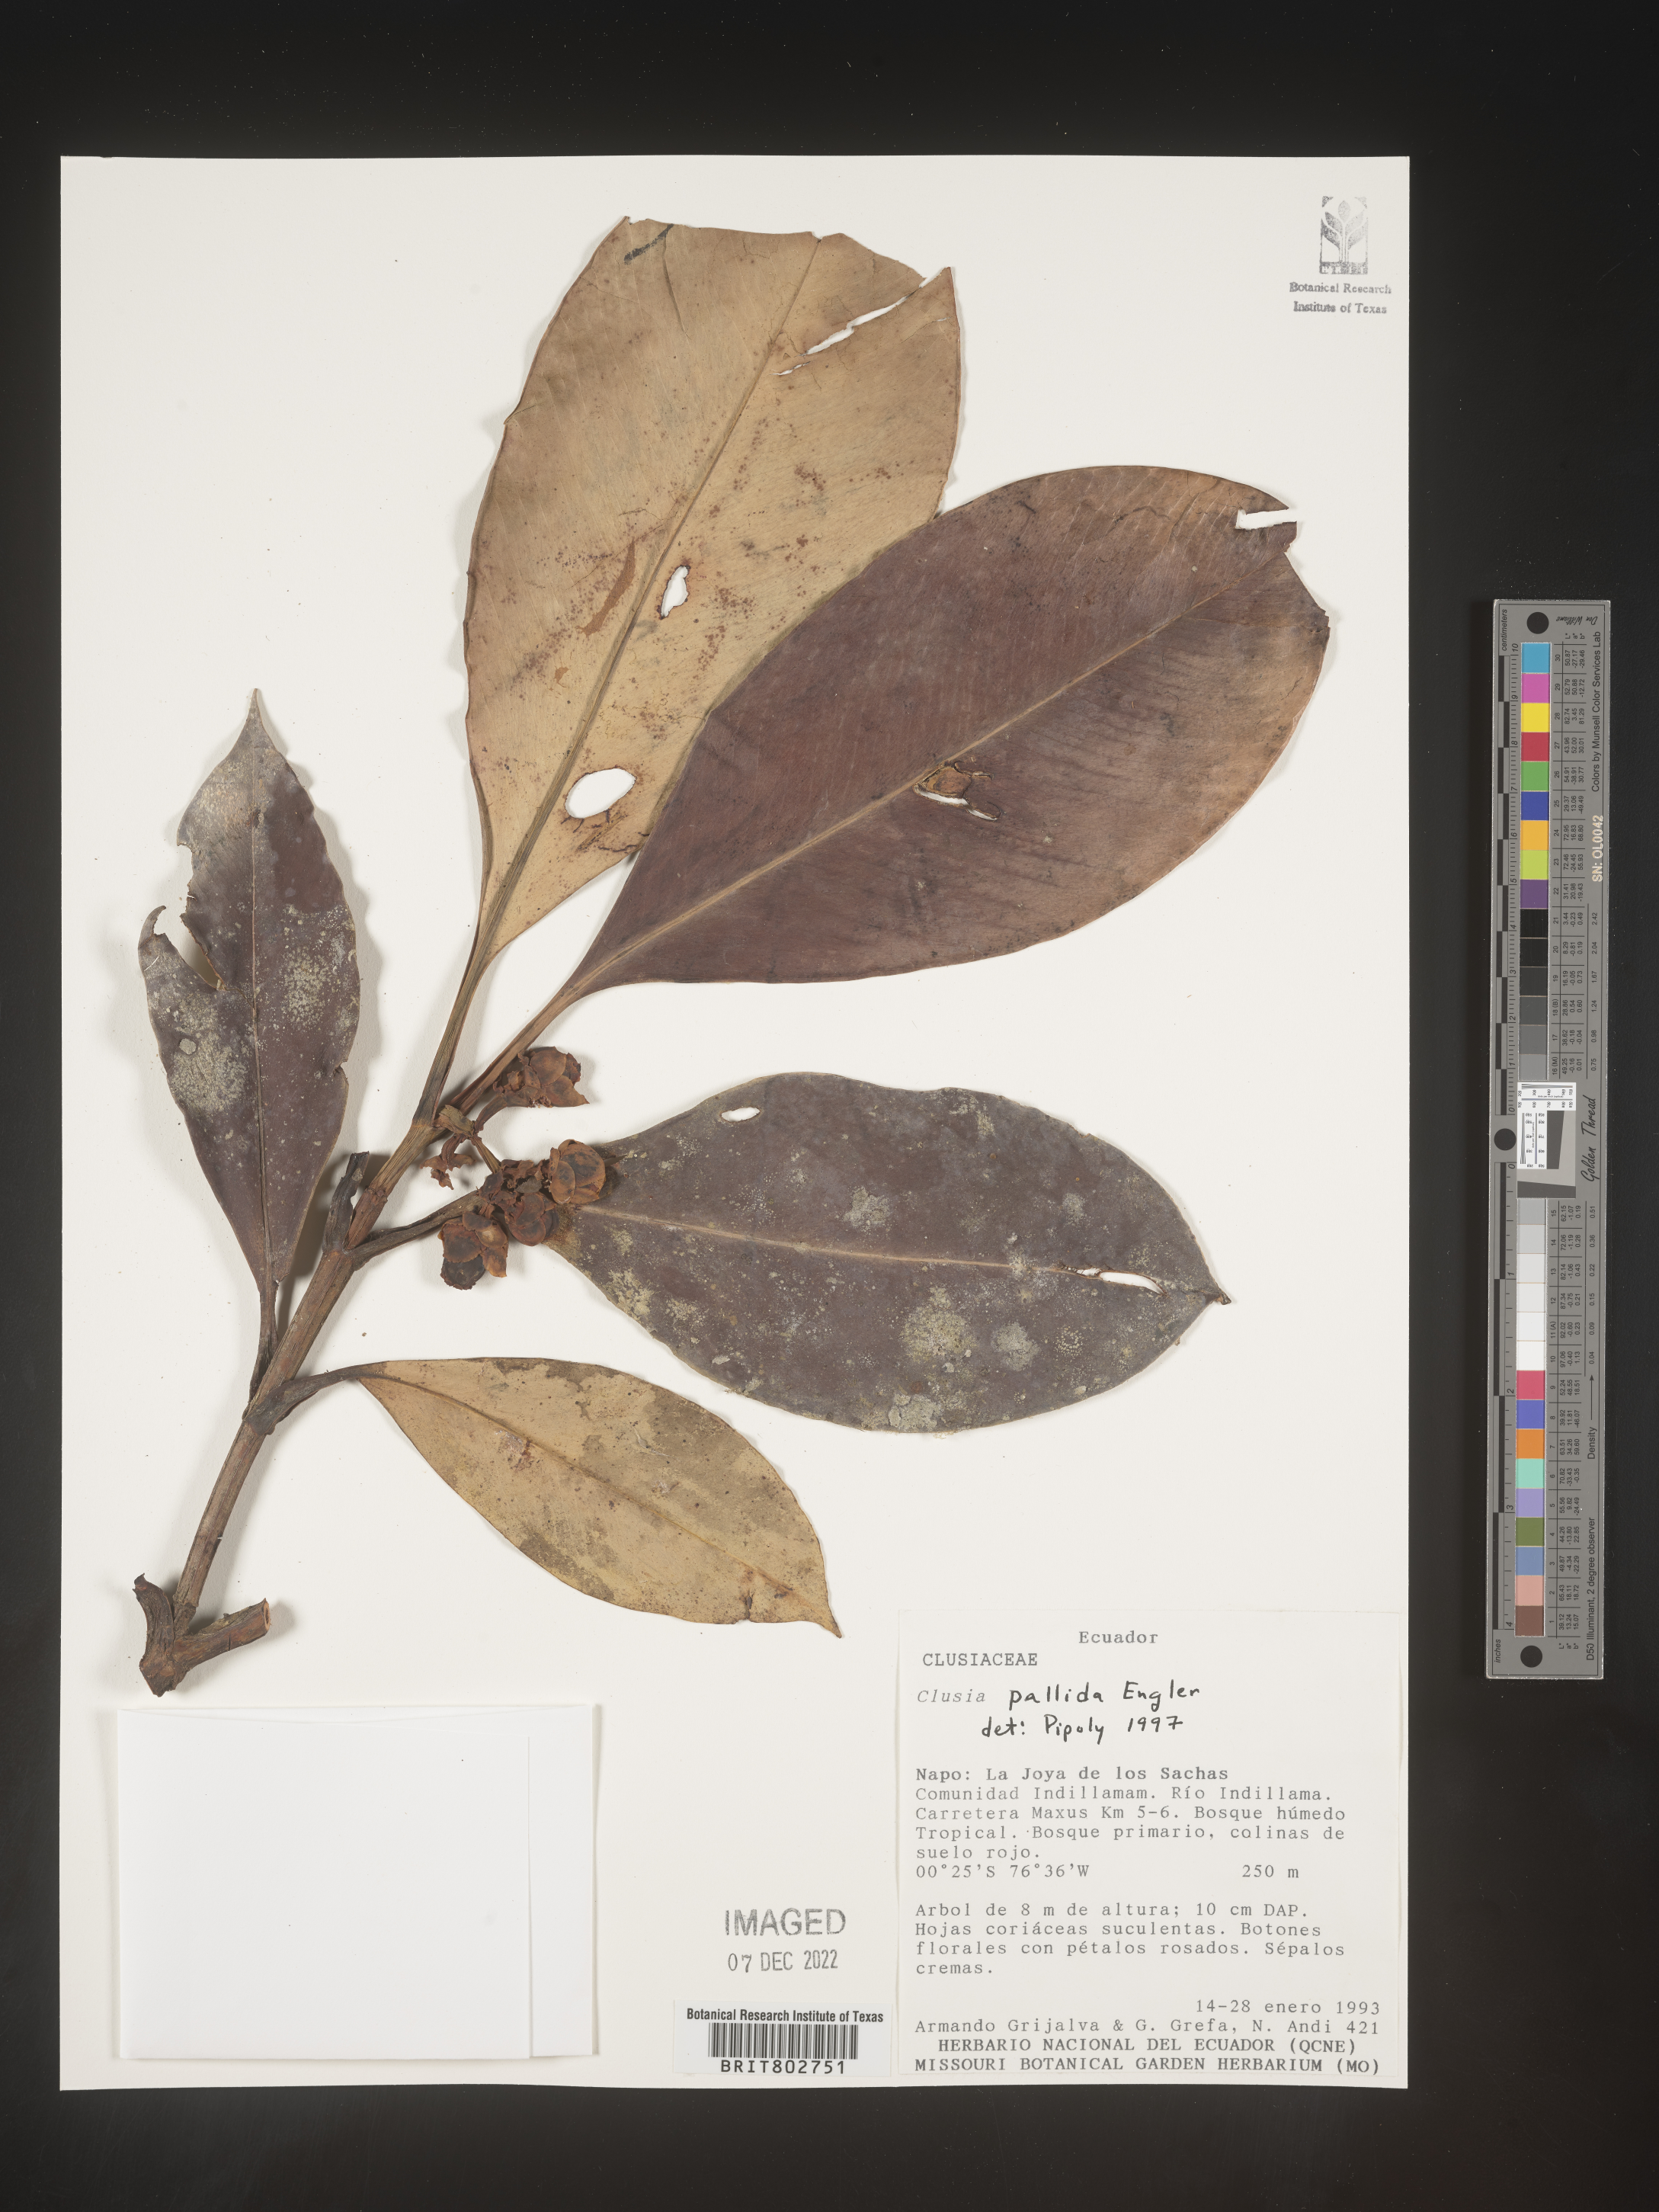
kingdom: Plantae
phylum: Tracheophyta
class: Magnoliopsida
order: Malpighiales
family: Clusiaceae
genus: Clusia
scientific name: Clusia pallida
